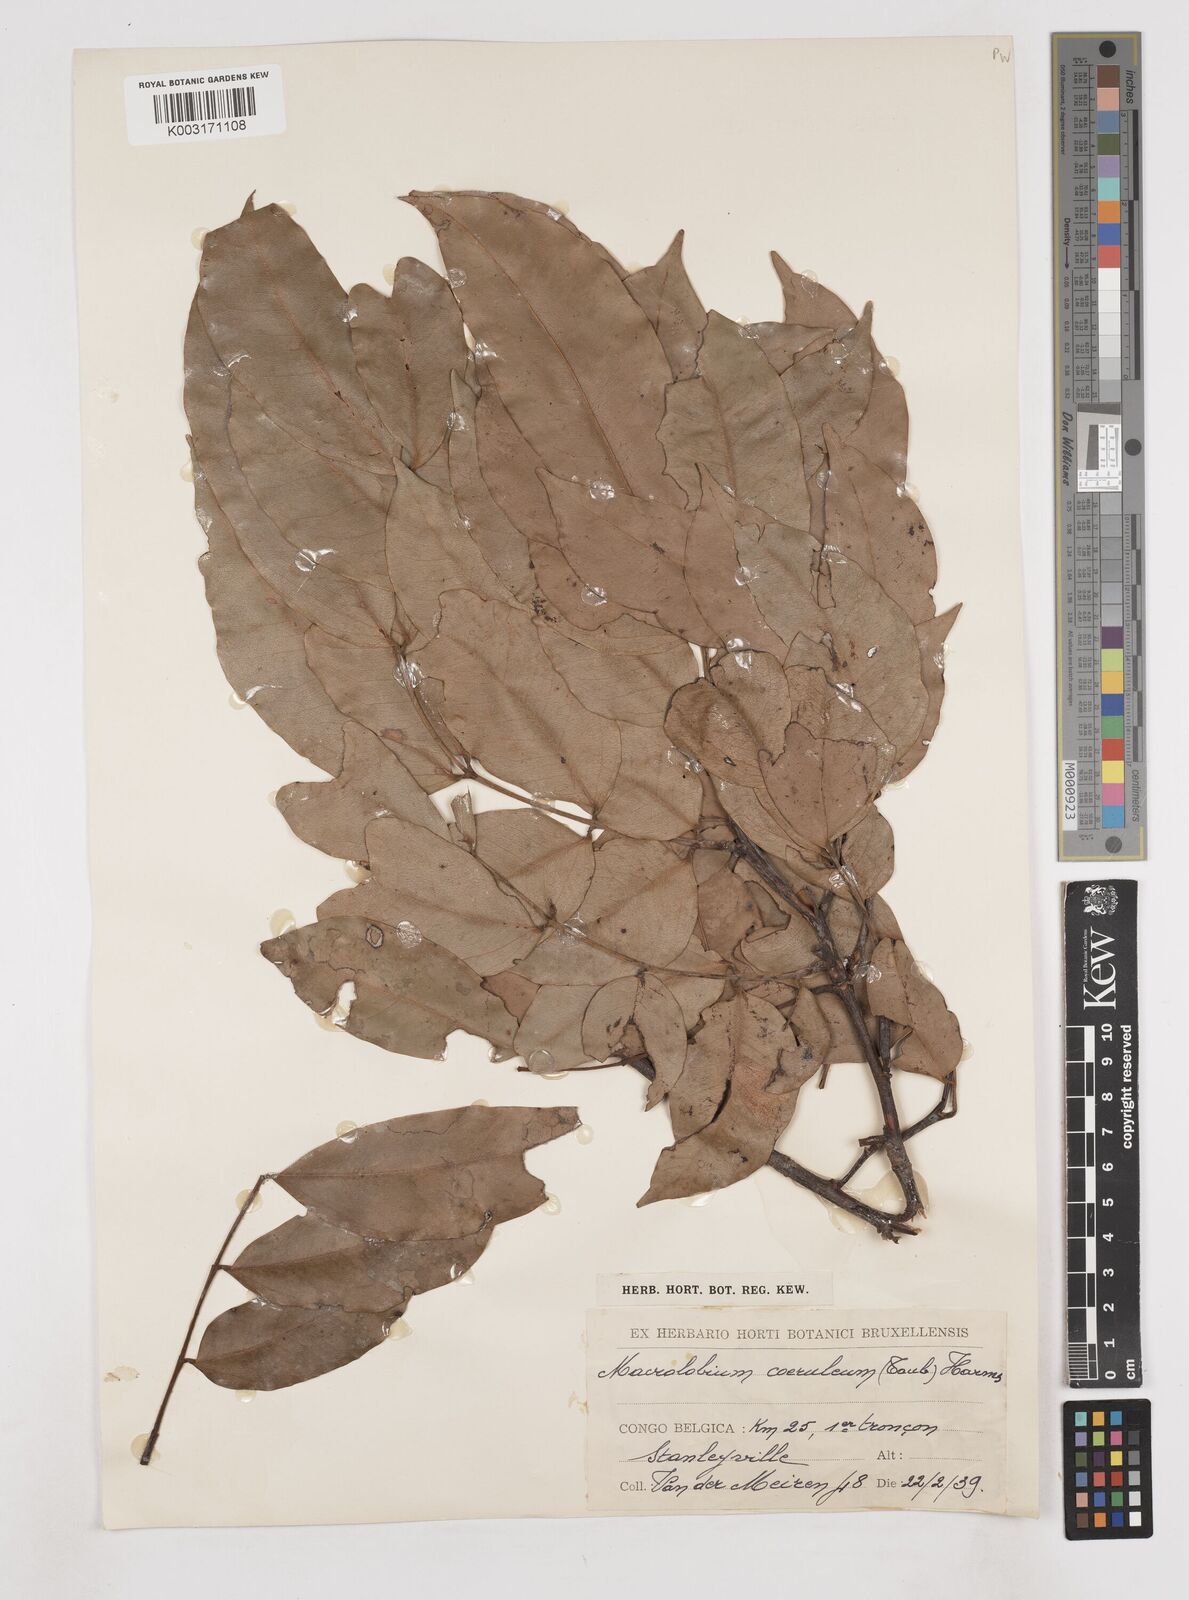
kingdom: Plantae
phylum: Tracheophyta
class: Magnoliopsida
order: Fabales
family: Fabaceae
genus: Paramacrolobium
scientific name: Paramacrolobium coeruleum
